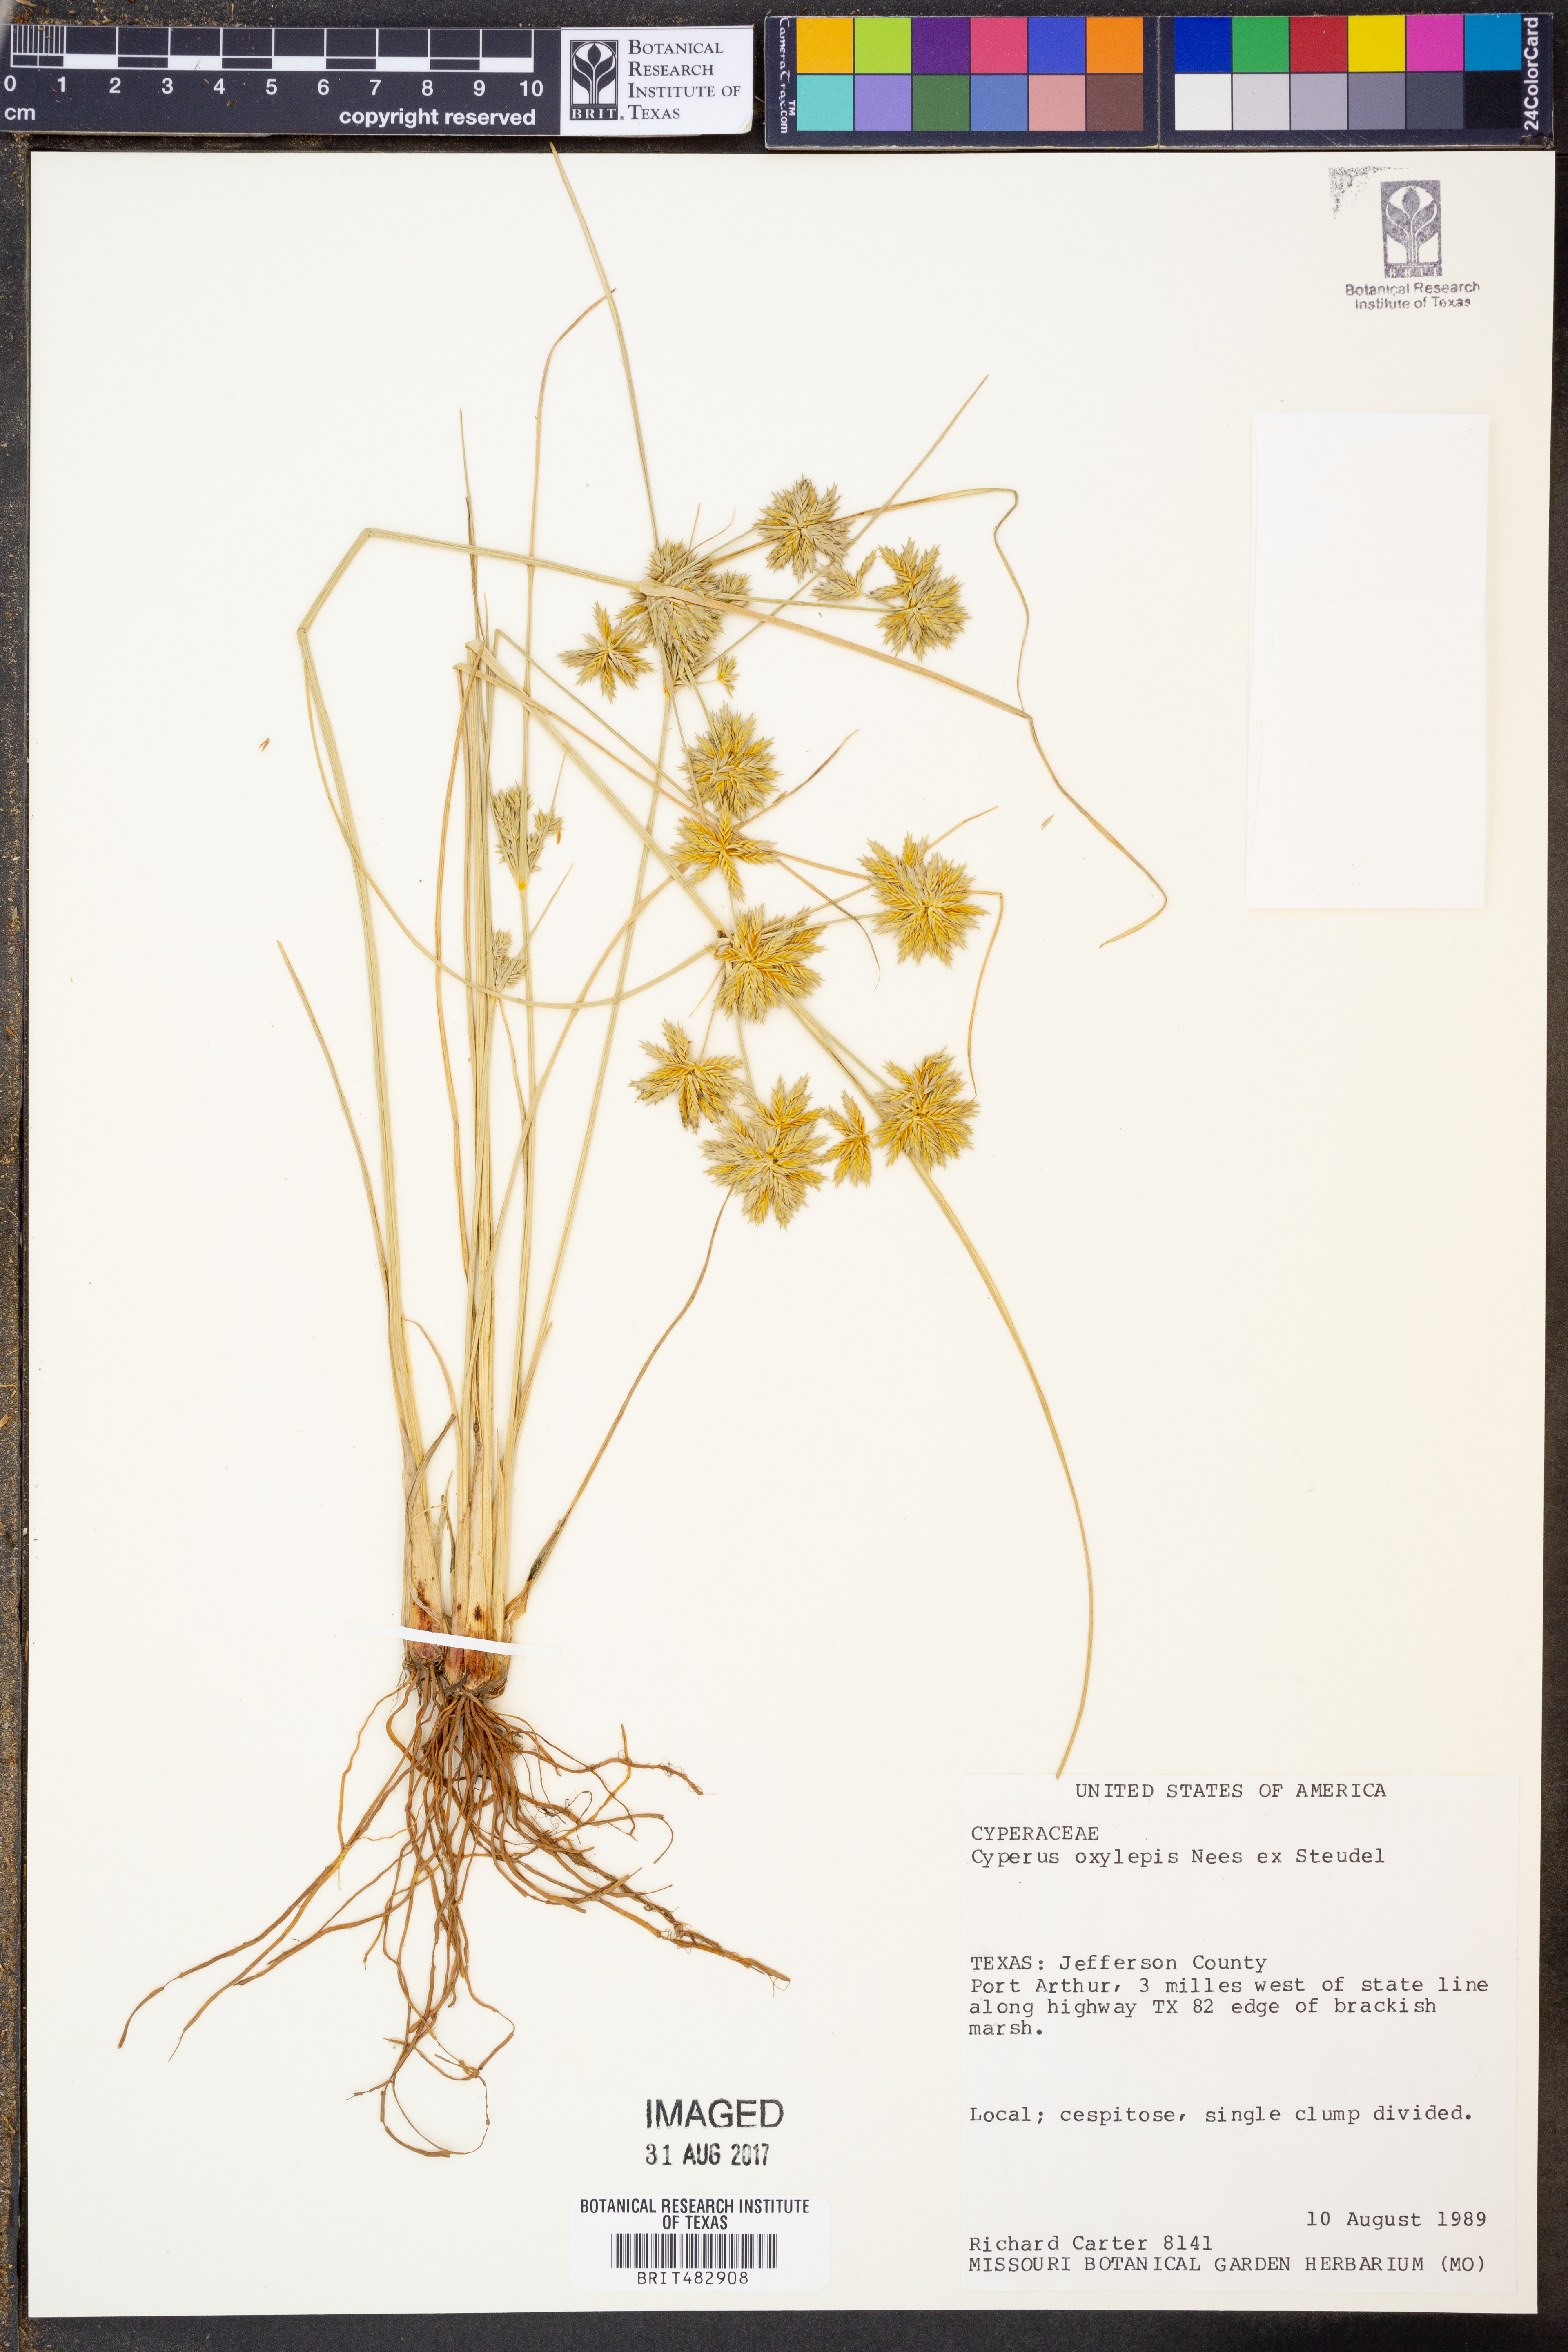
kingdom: Plantae
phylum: Tracheophyta
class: Liliopsida
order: Poales
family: Cyperaceae
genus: Cyperus
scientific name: Cyperus oxylepis
